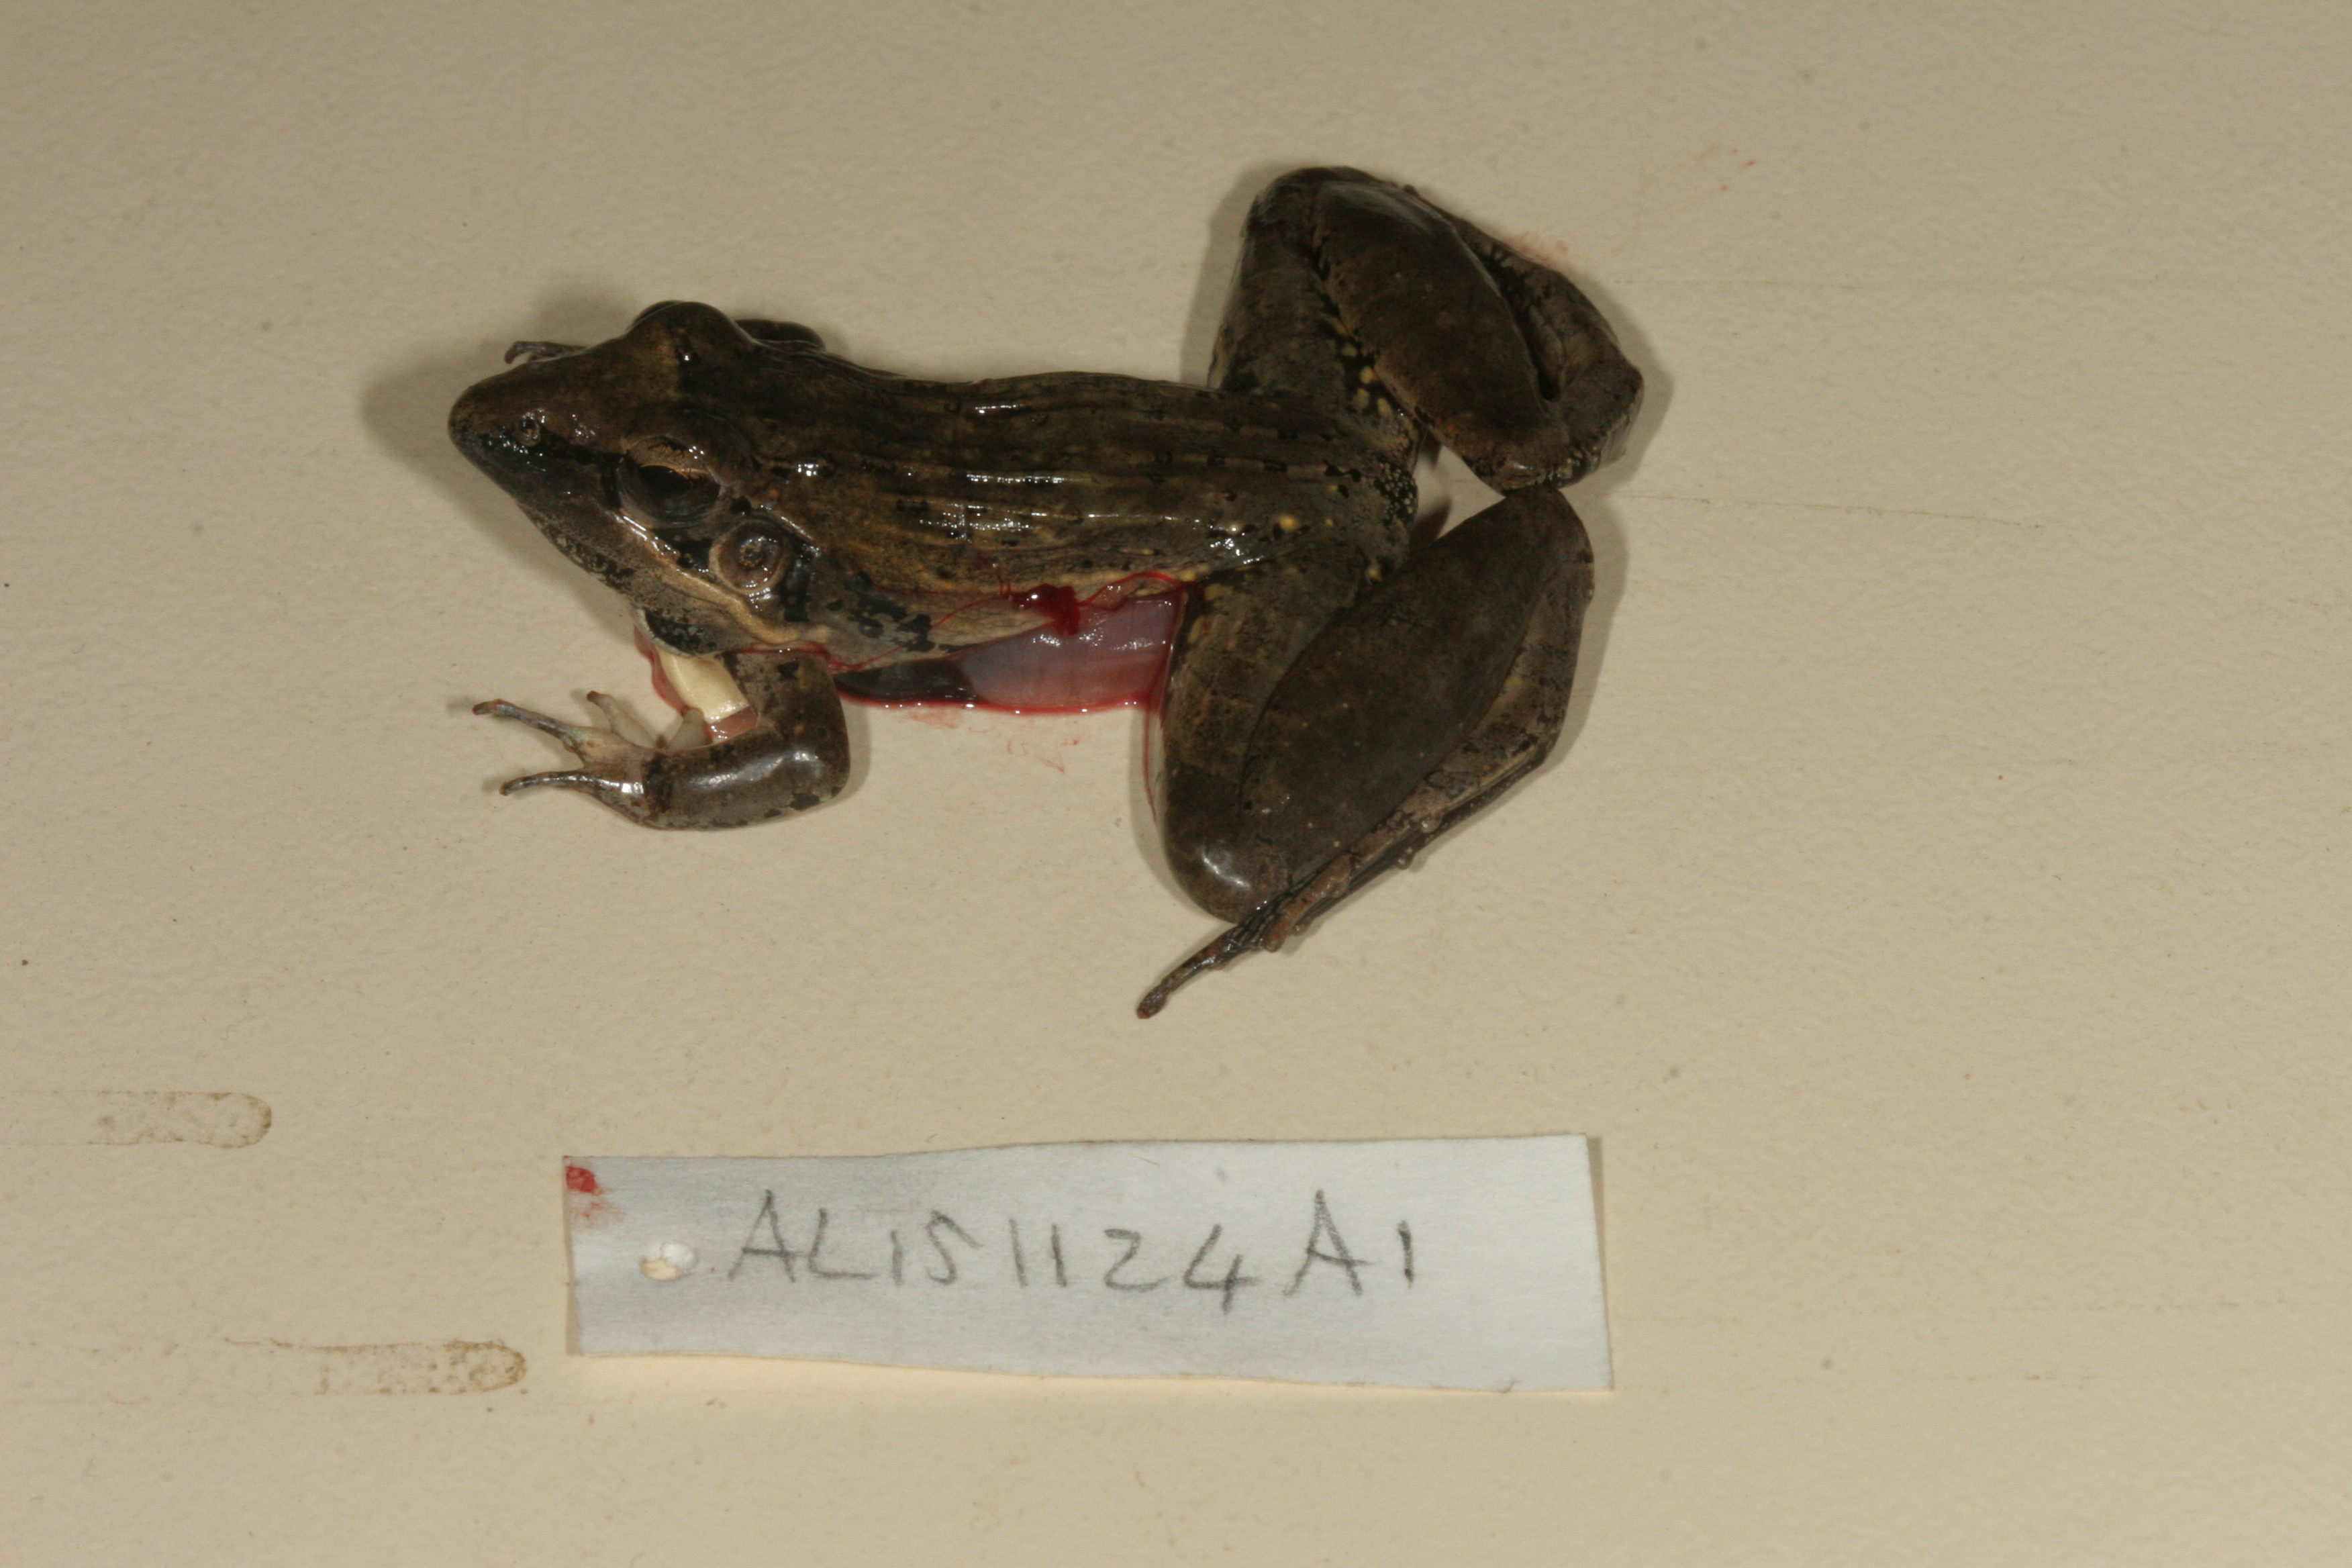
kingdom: Animalia
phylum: Chordata
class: Amphibia
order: Anura
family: Ptychadenidae
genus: Ptychadena
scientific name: Ptychadena anchietae
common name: Anchieta's ridged frog
